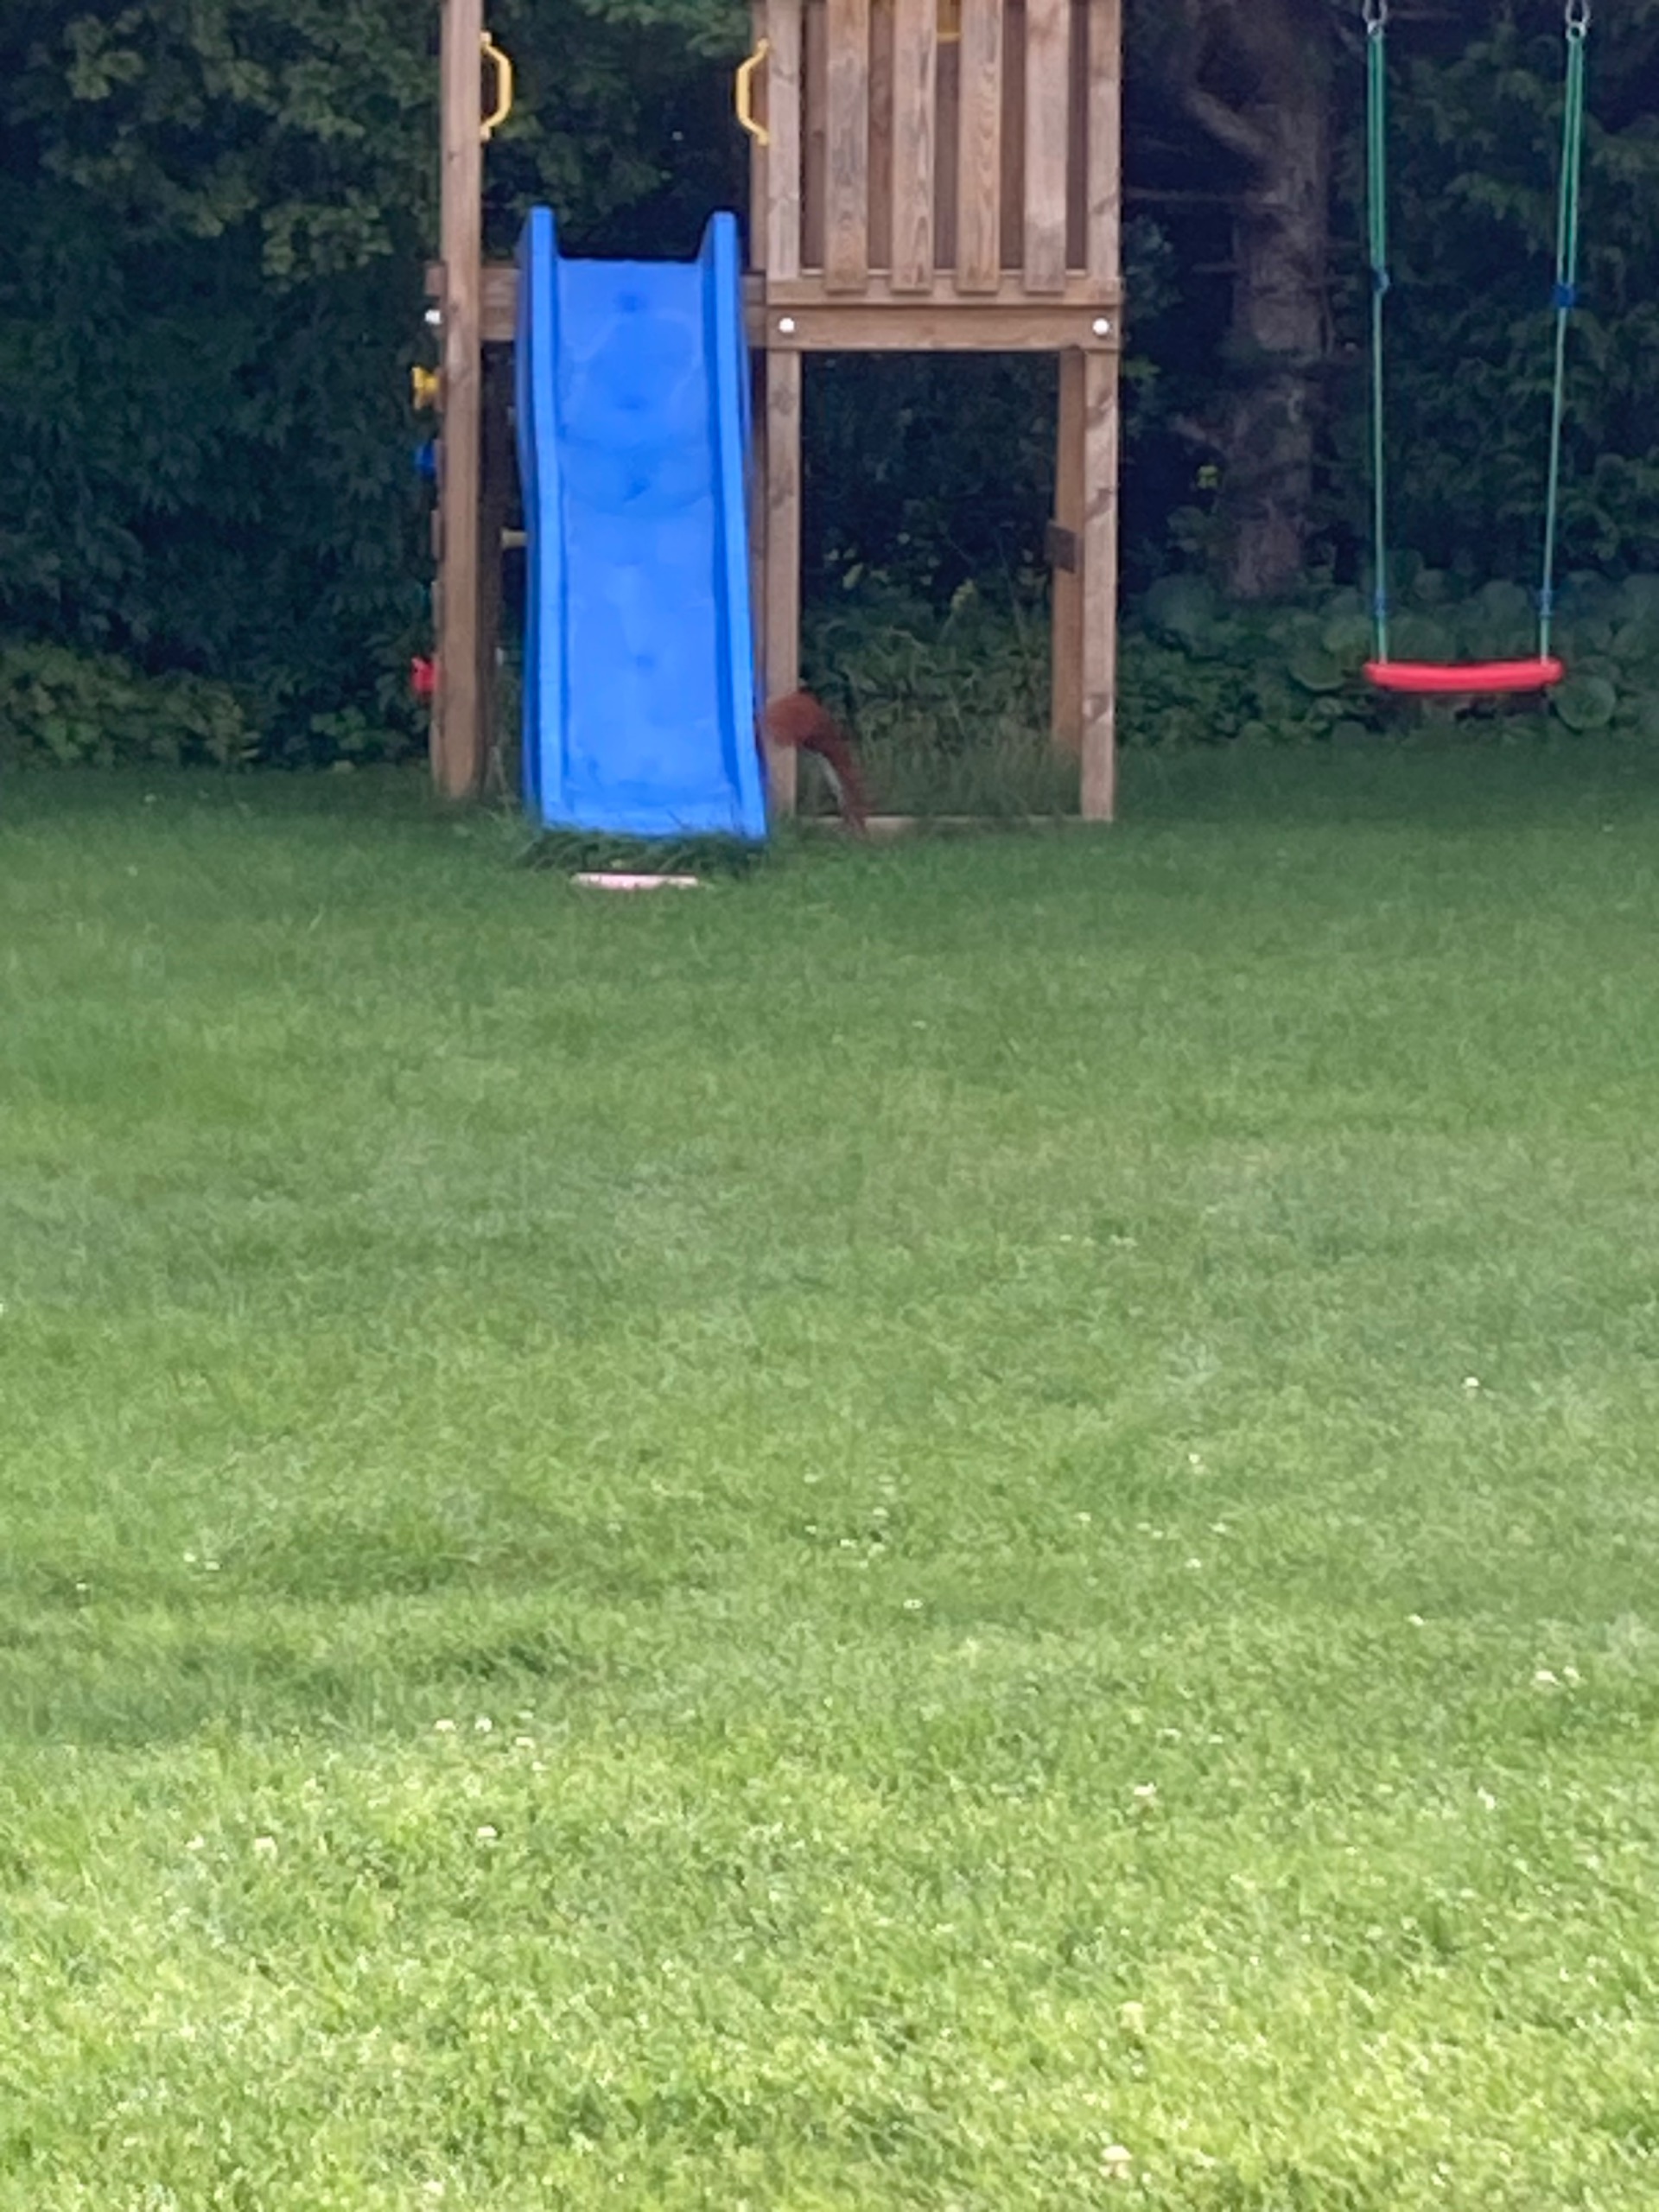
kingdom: Animalia
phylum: Chordata
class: Mammalia
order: Rodentia
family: Sciuridae
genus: Sciurus
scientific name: Sciurus vulgaris
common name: Egern
